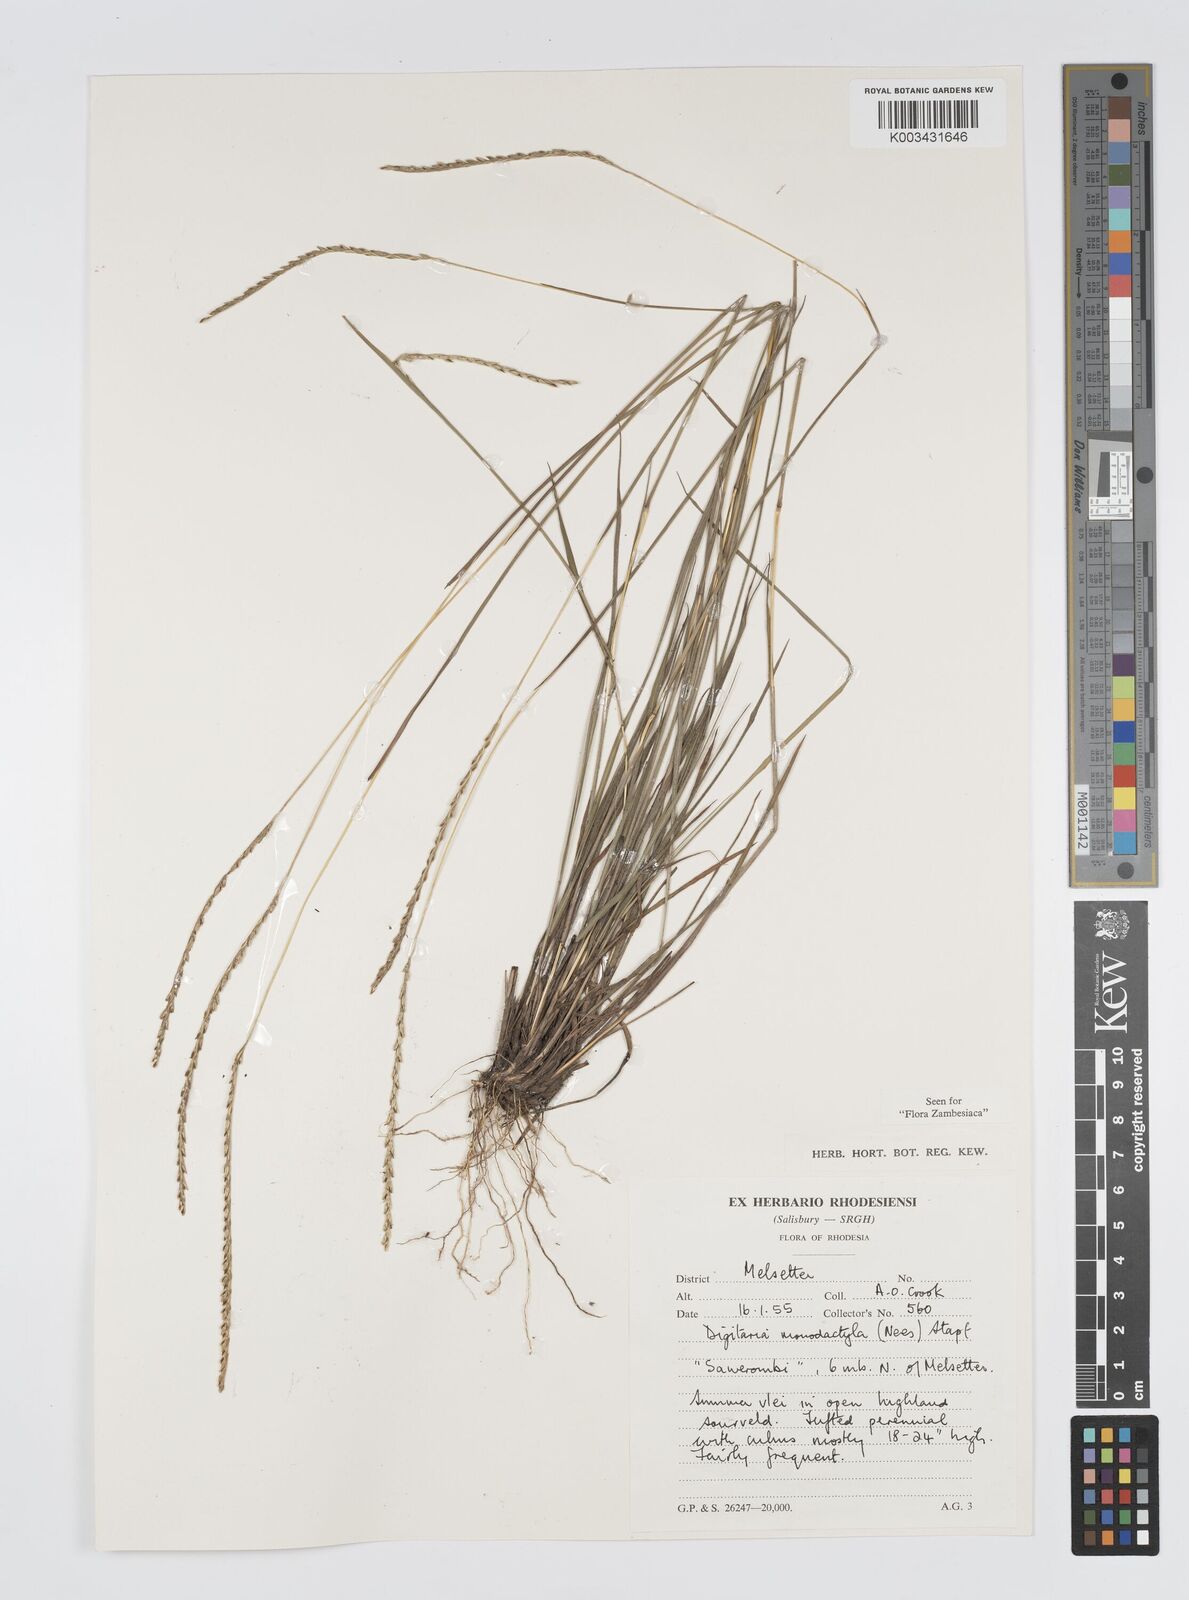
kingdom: Plantae
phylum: Tracheophyta
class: Liliopsida
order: Poales
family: Poaceae
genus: Digitaria
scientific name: Digitaria monodactyla
